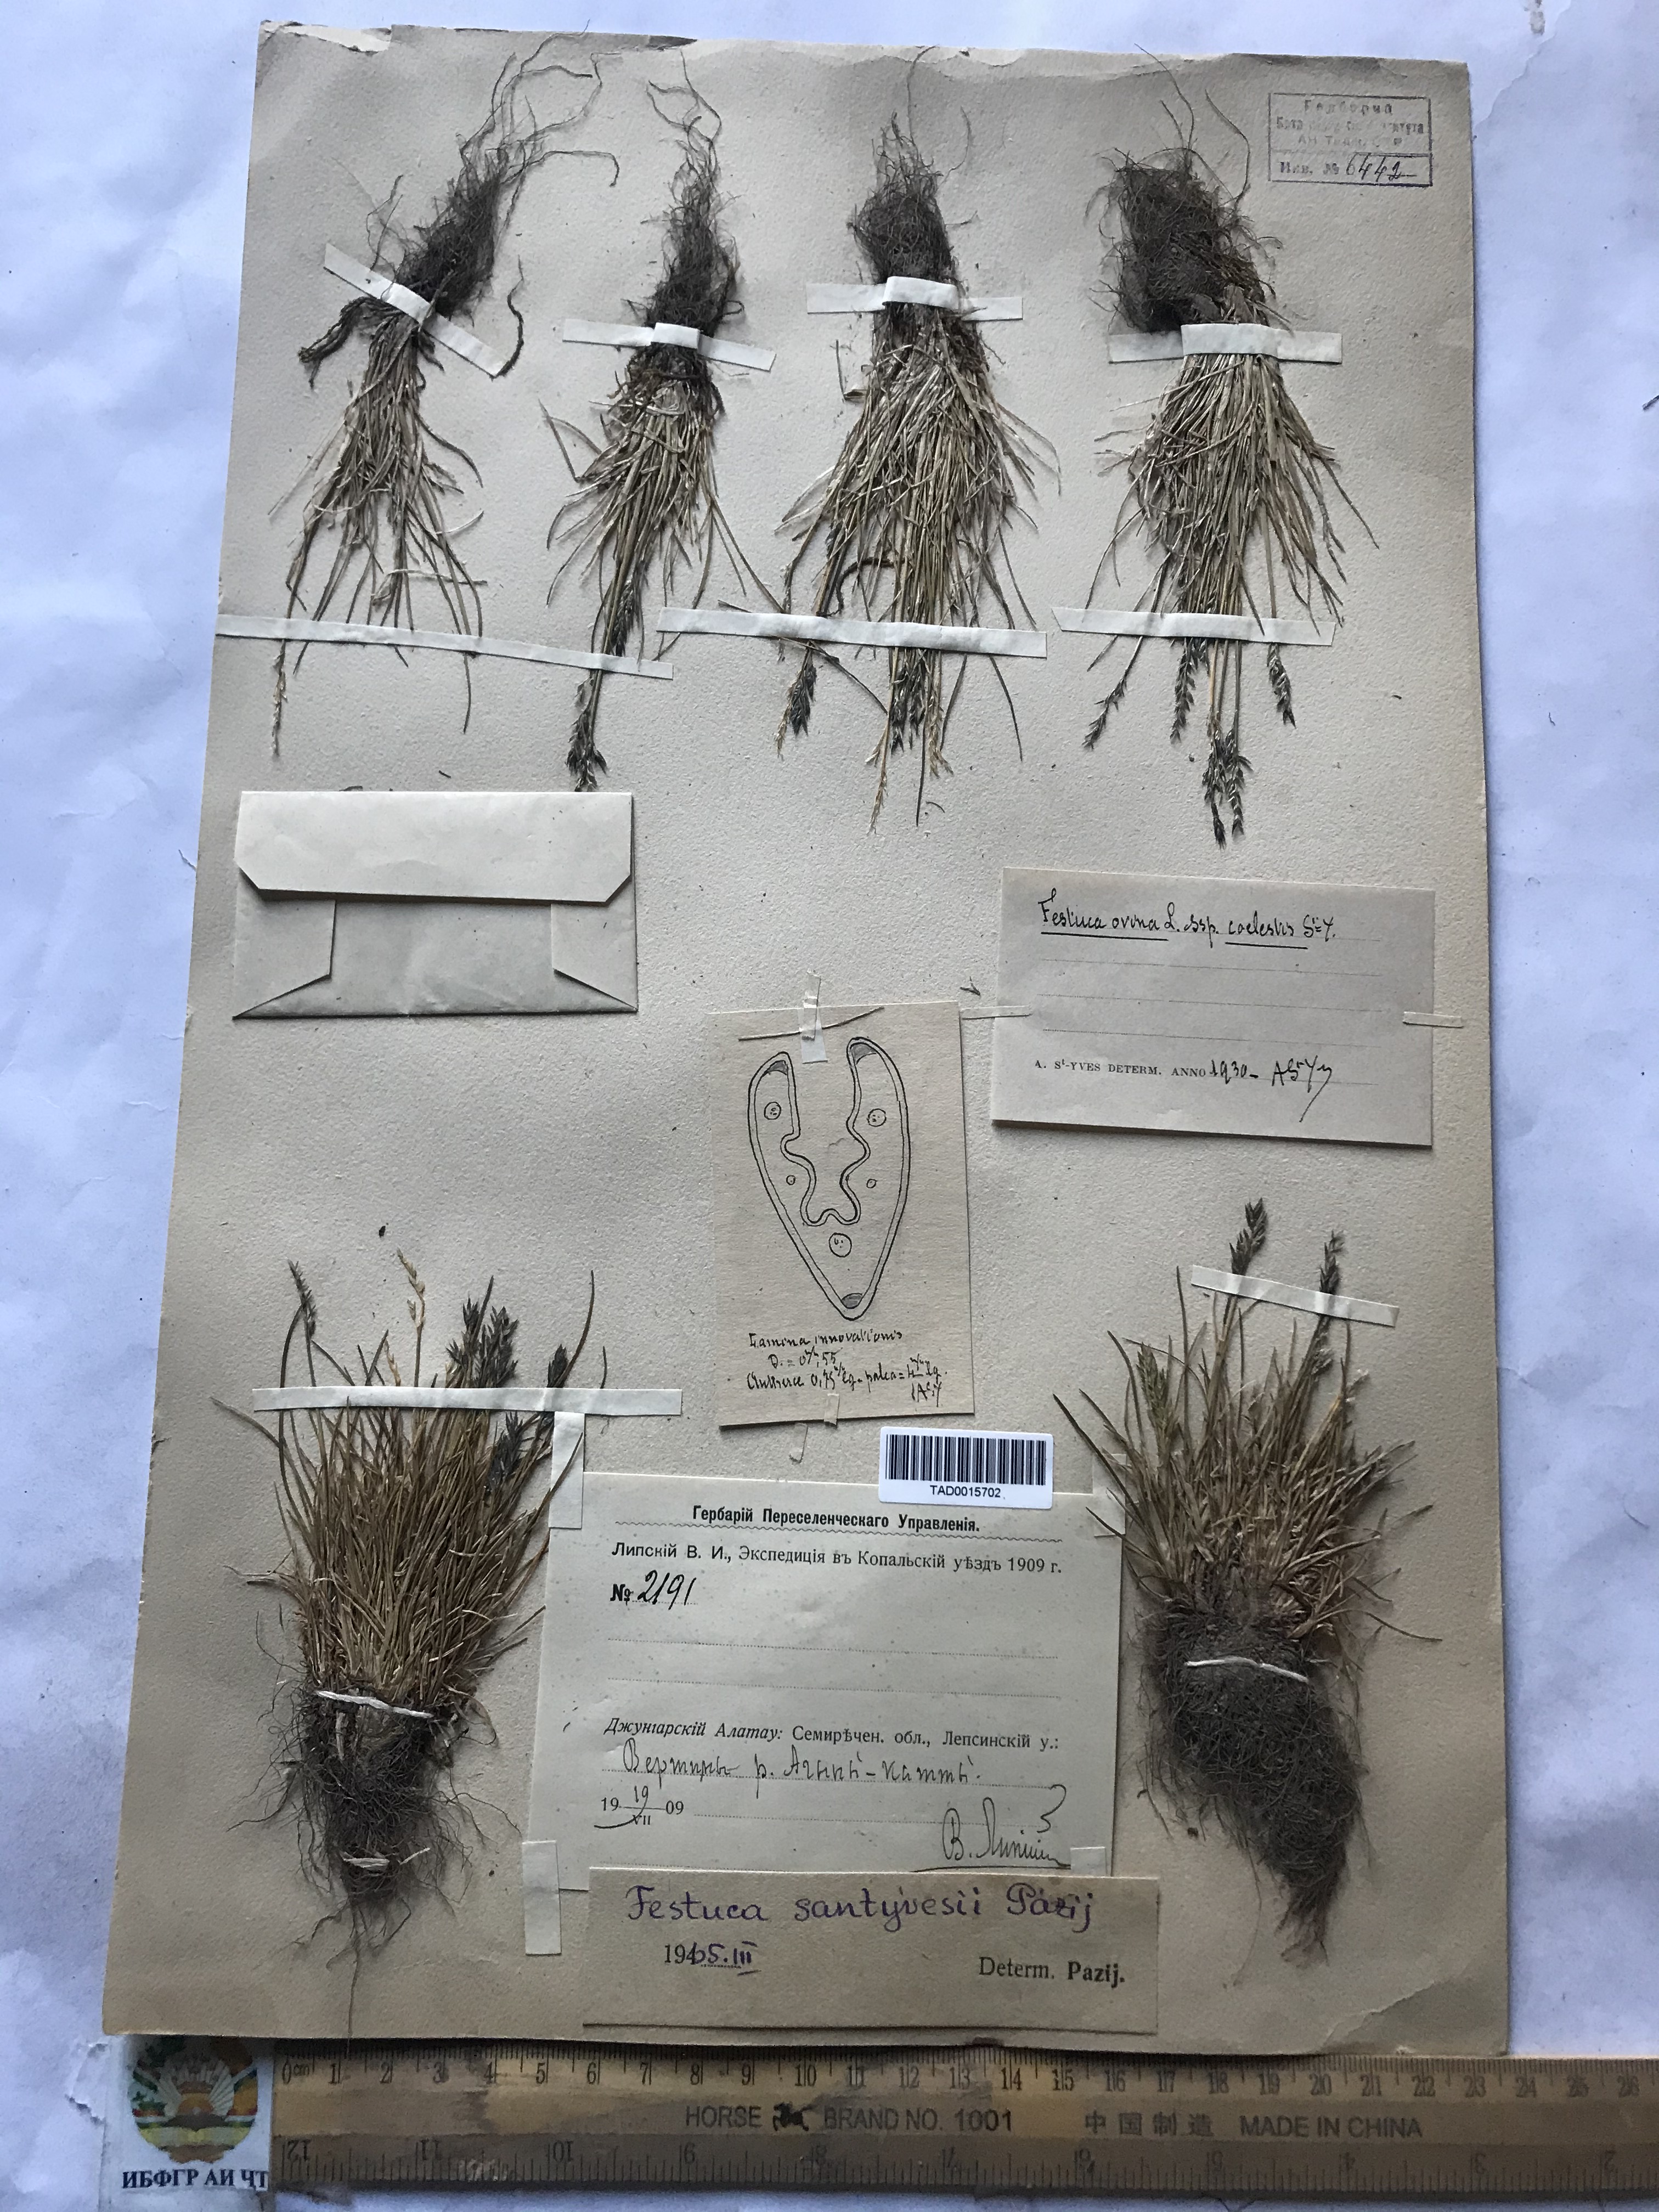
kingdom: Plantae
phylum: Tracheophyta
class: Liliopsida
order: Poales
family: Poaceae
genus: Festuca
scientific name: Festuca ovina
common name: Sheep fescue
